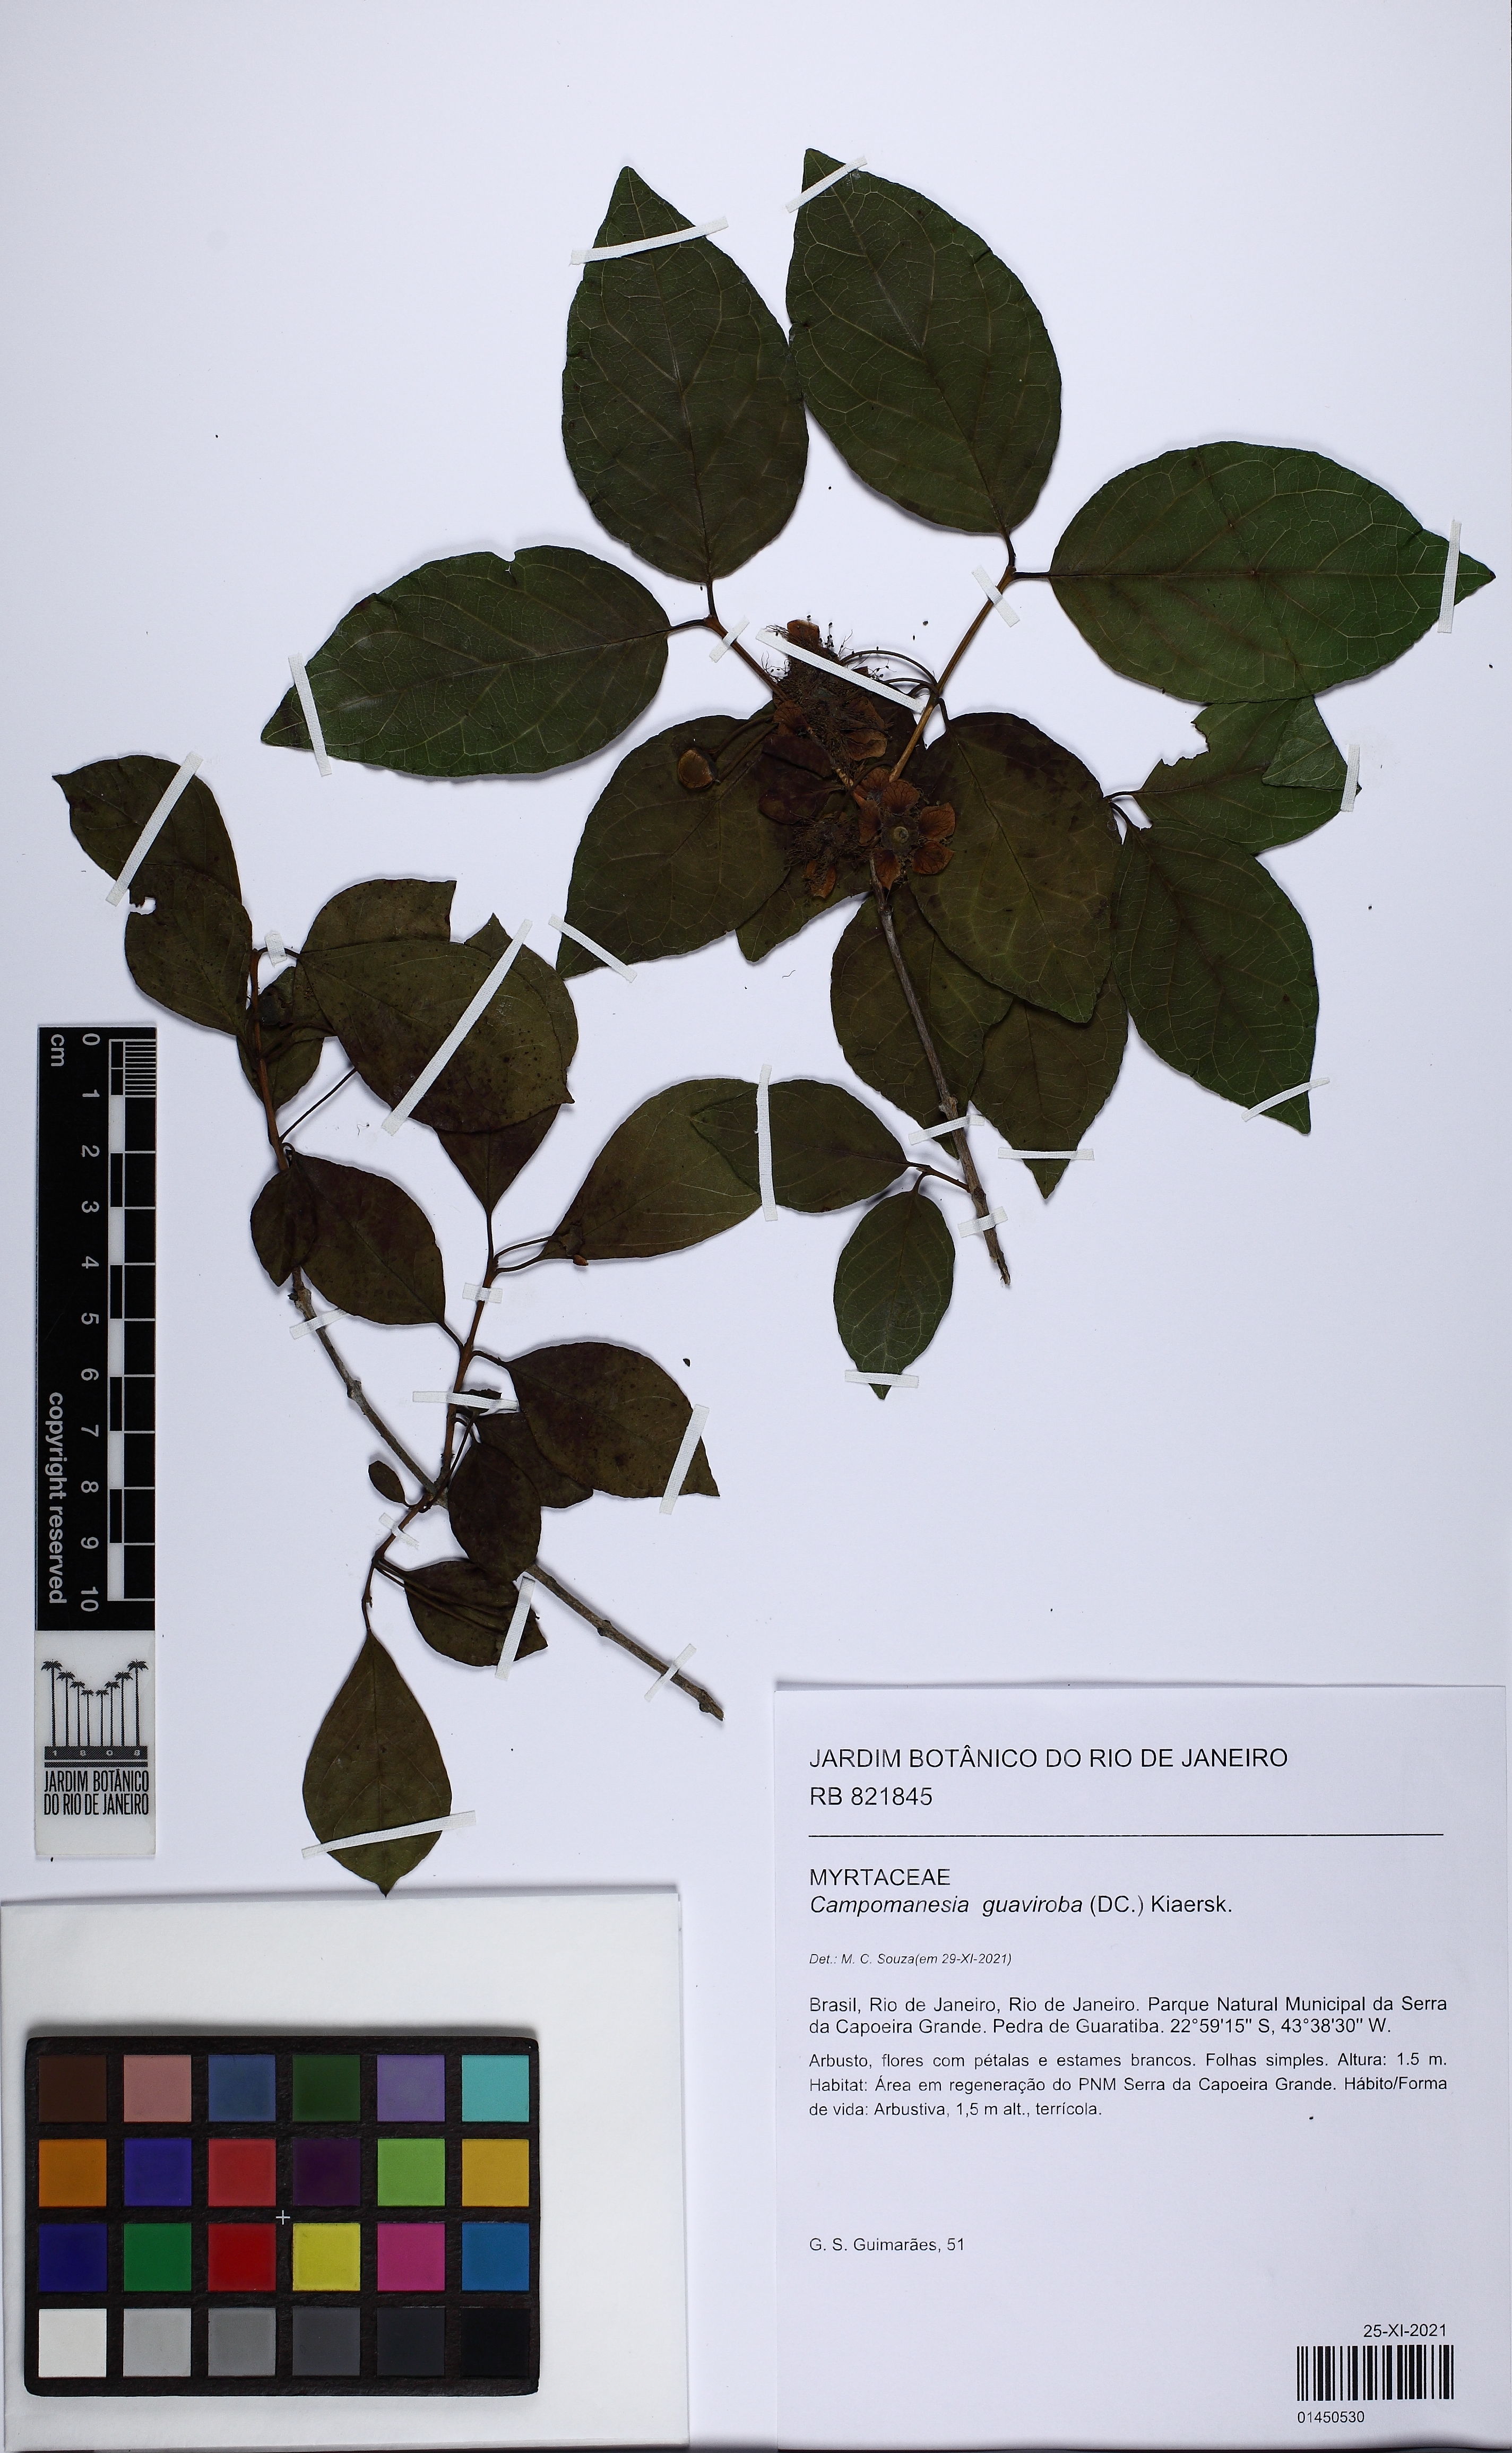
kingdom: Plantae
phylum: Tracheophyta
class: Magnoliopsida
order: Myrtales
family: Myrtaceae
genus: Campomanesia
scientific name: Campomanesia guaviroba
